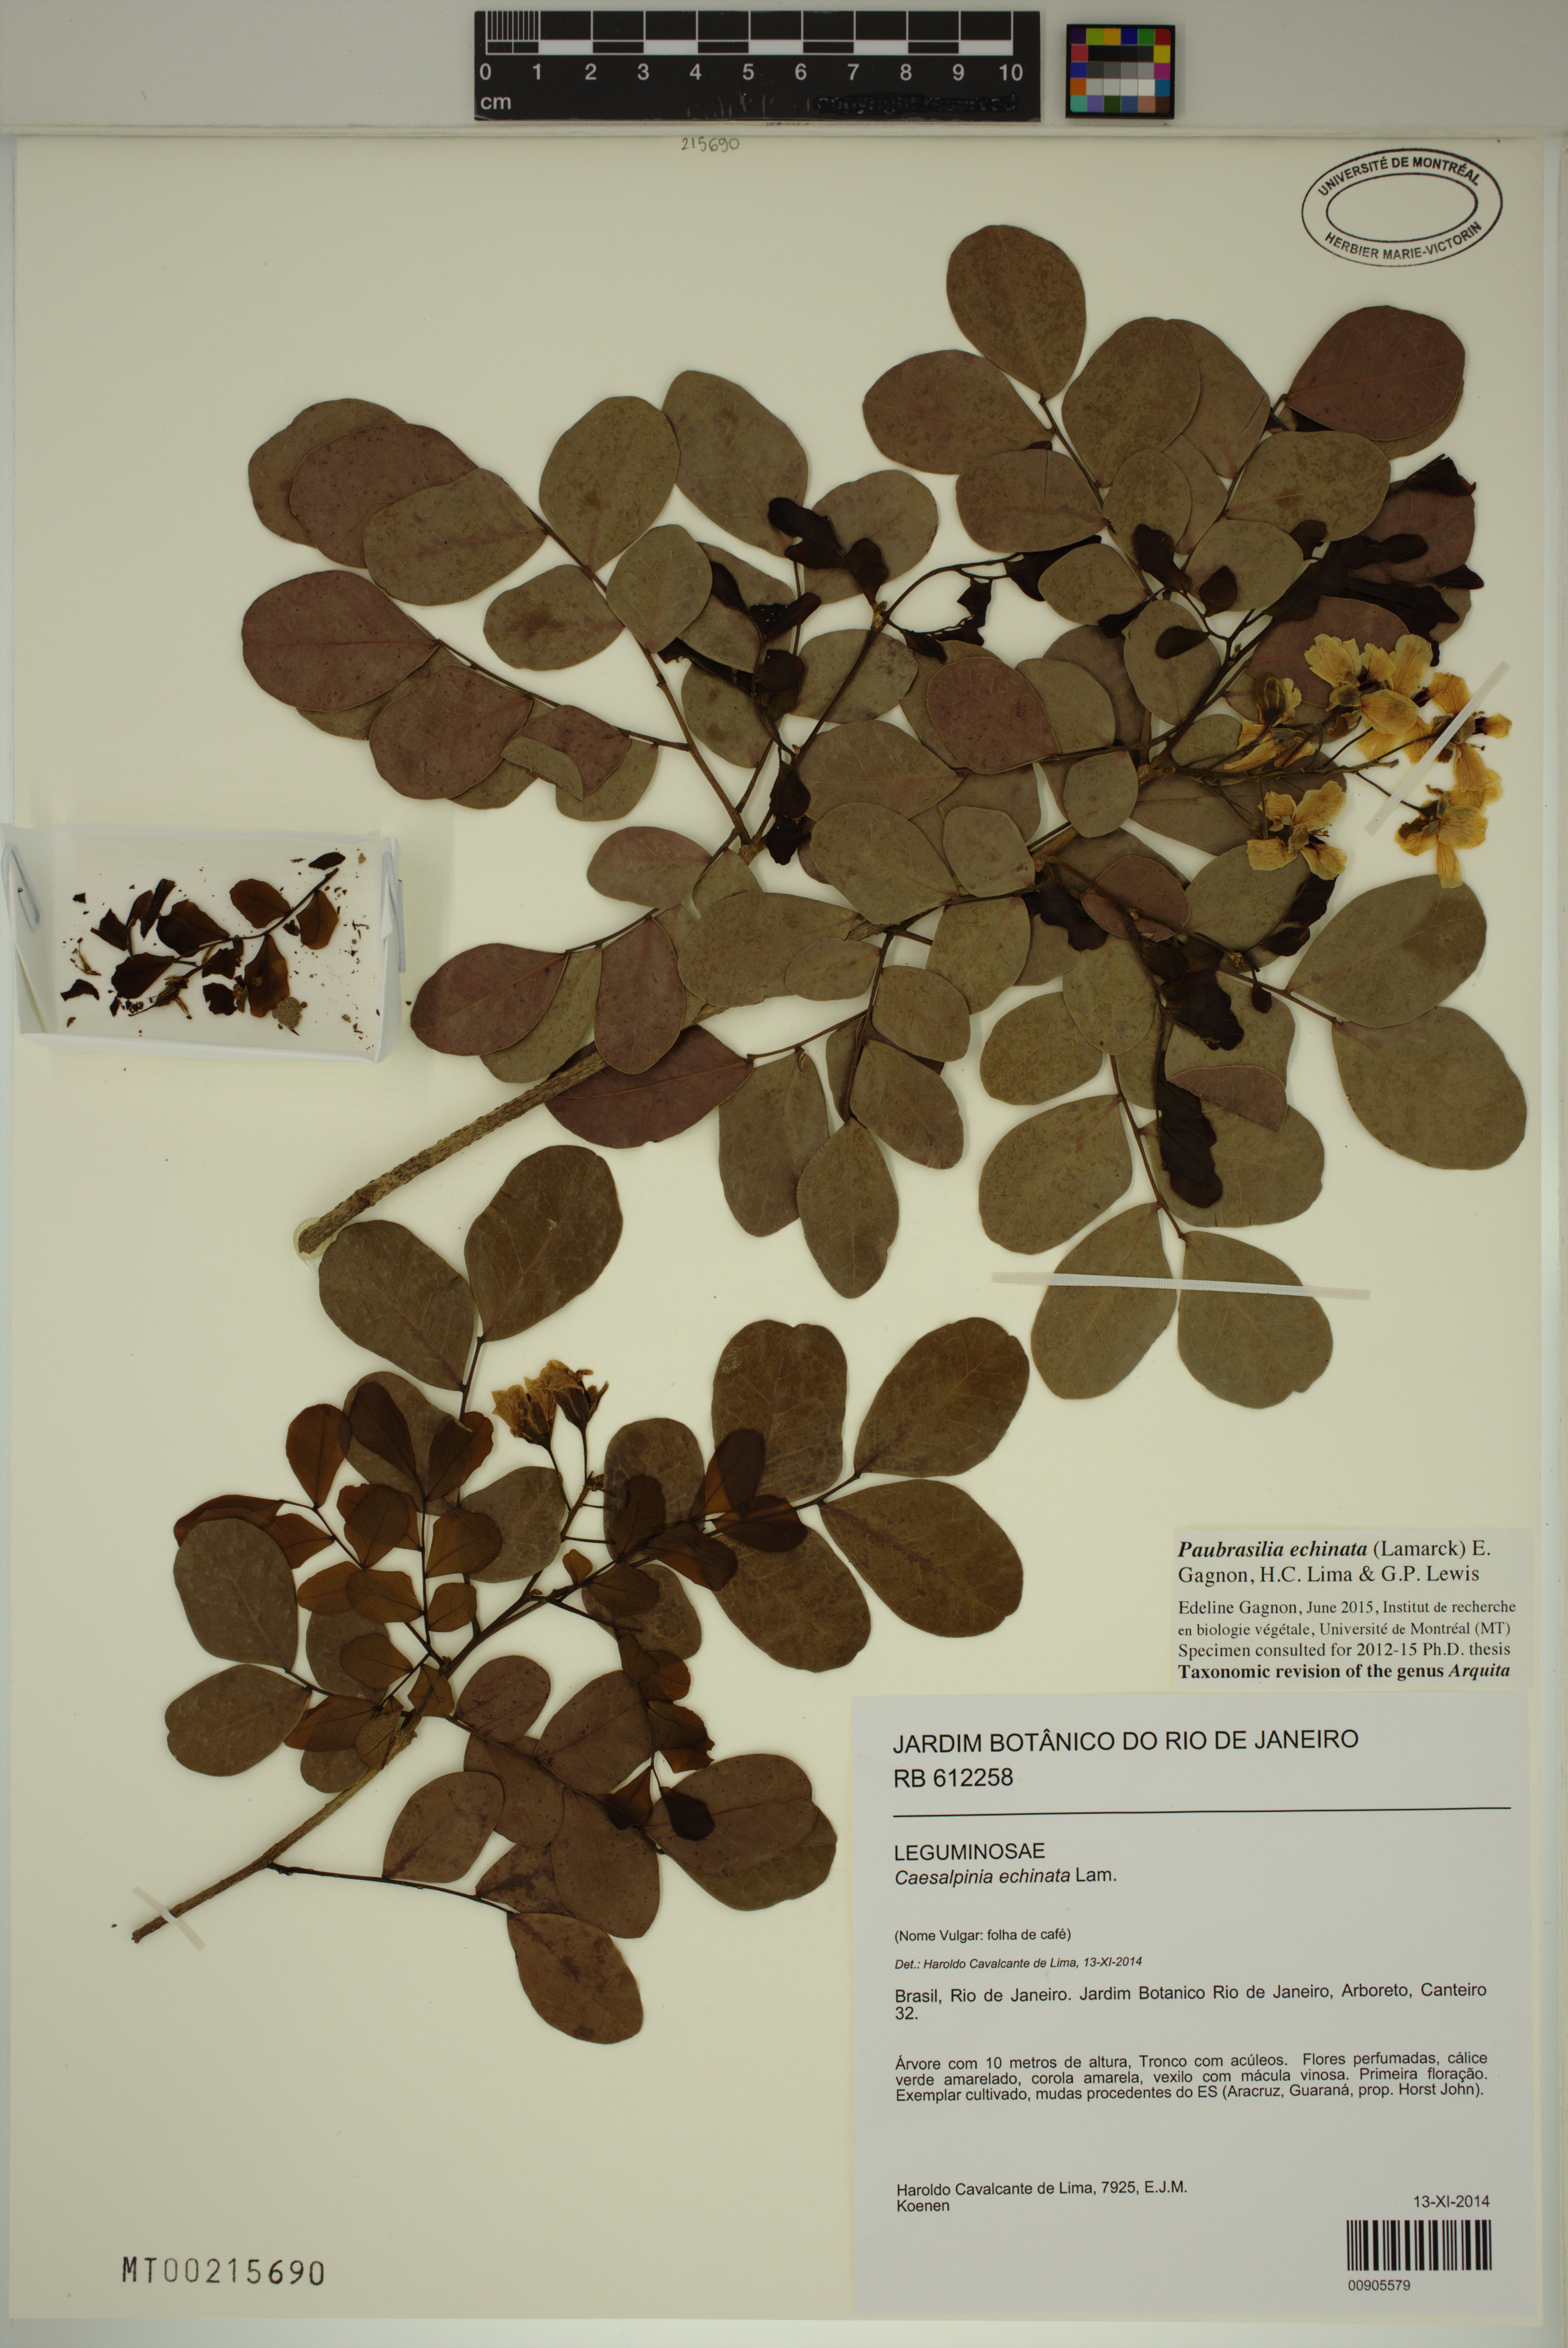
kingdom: Plantae
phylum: Tracheophyta
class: Magnoliopsida
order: Fabales
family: Fabaceae
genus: Paubrasilia
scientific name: Paubrasilia echinata
